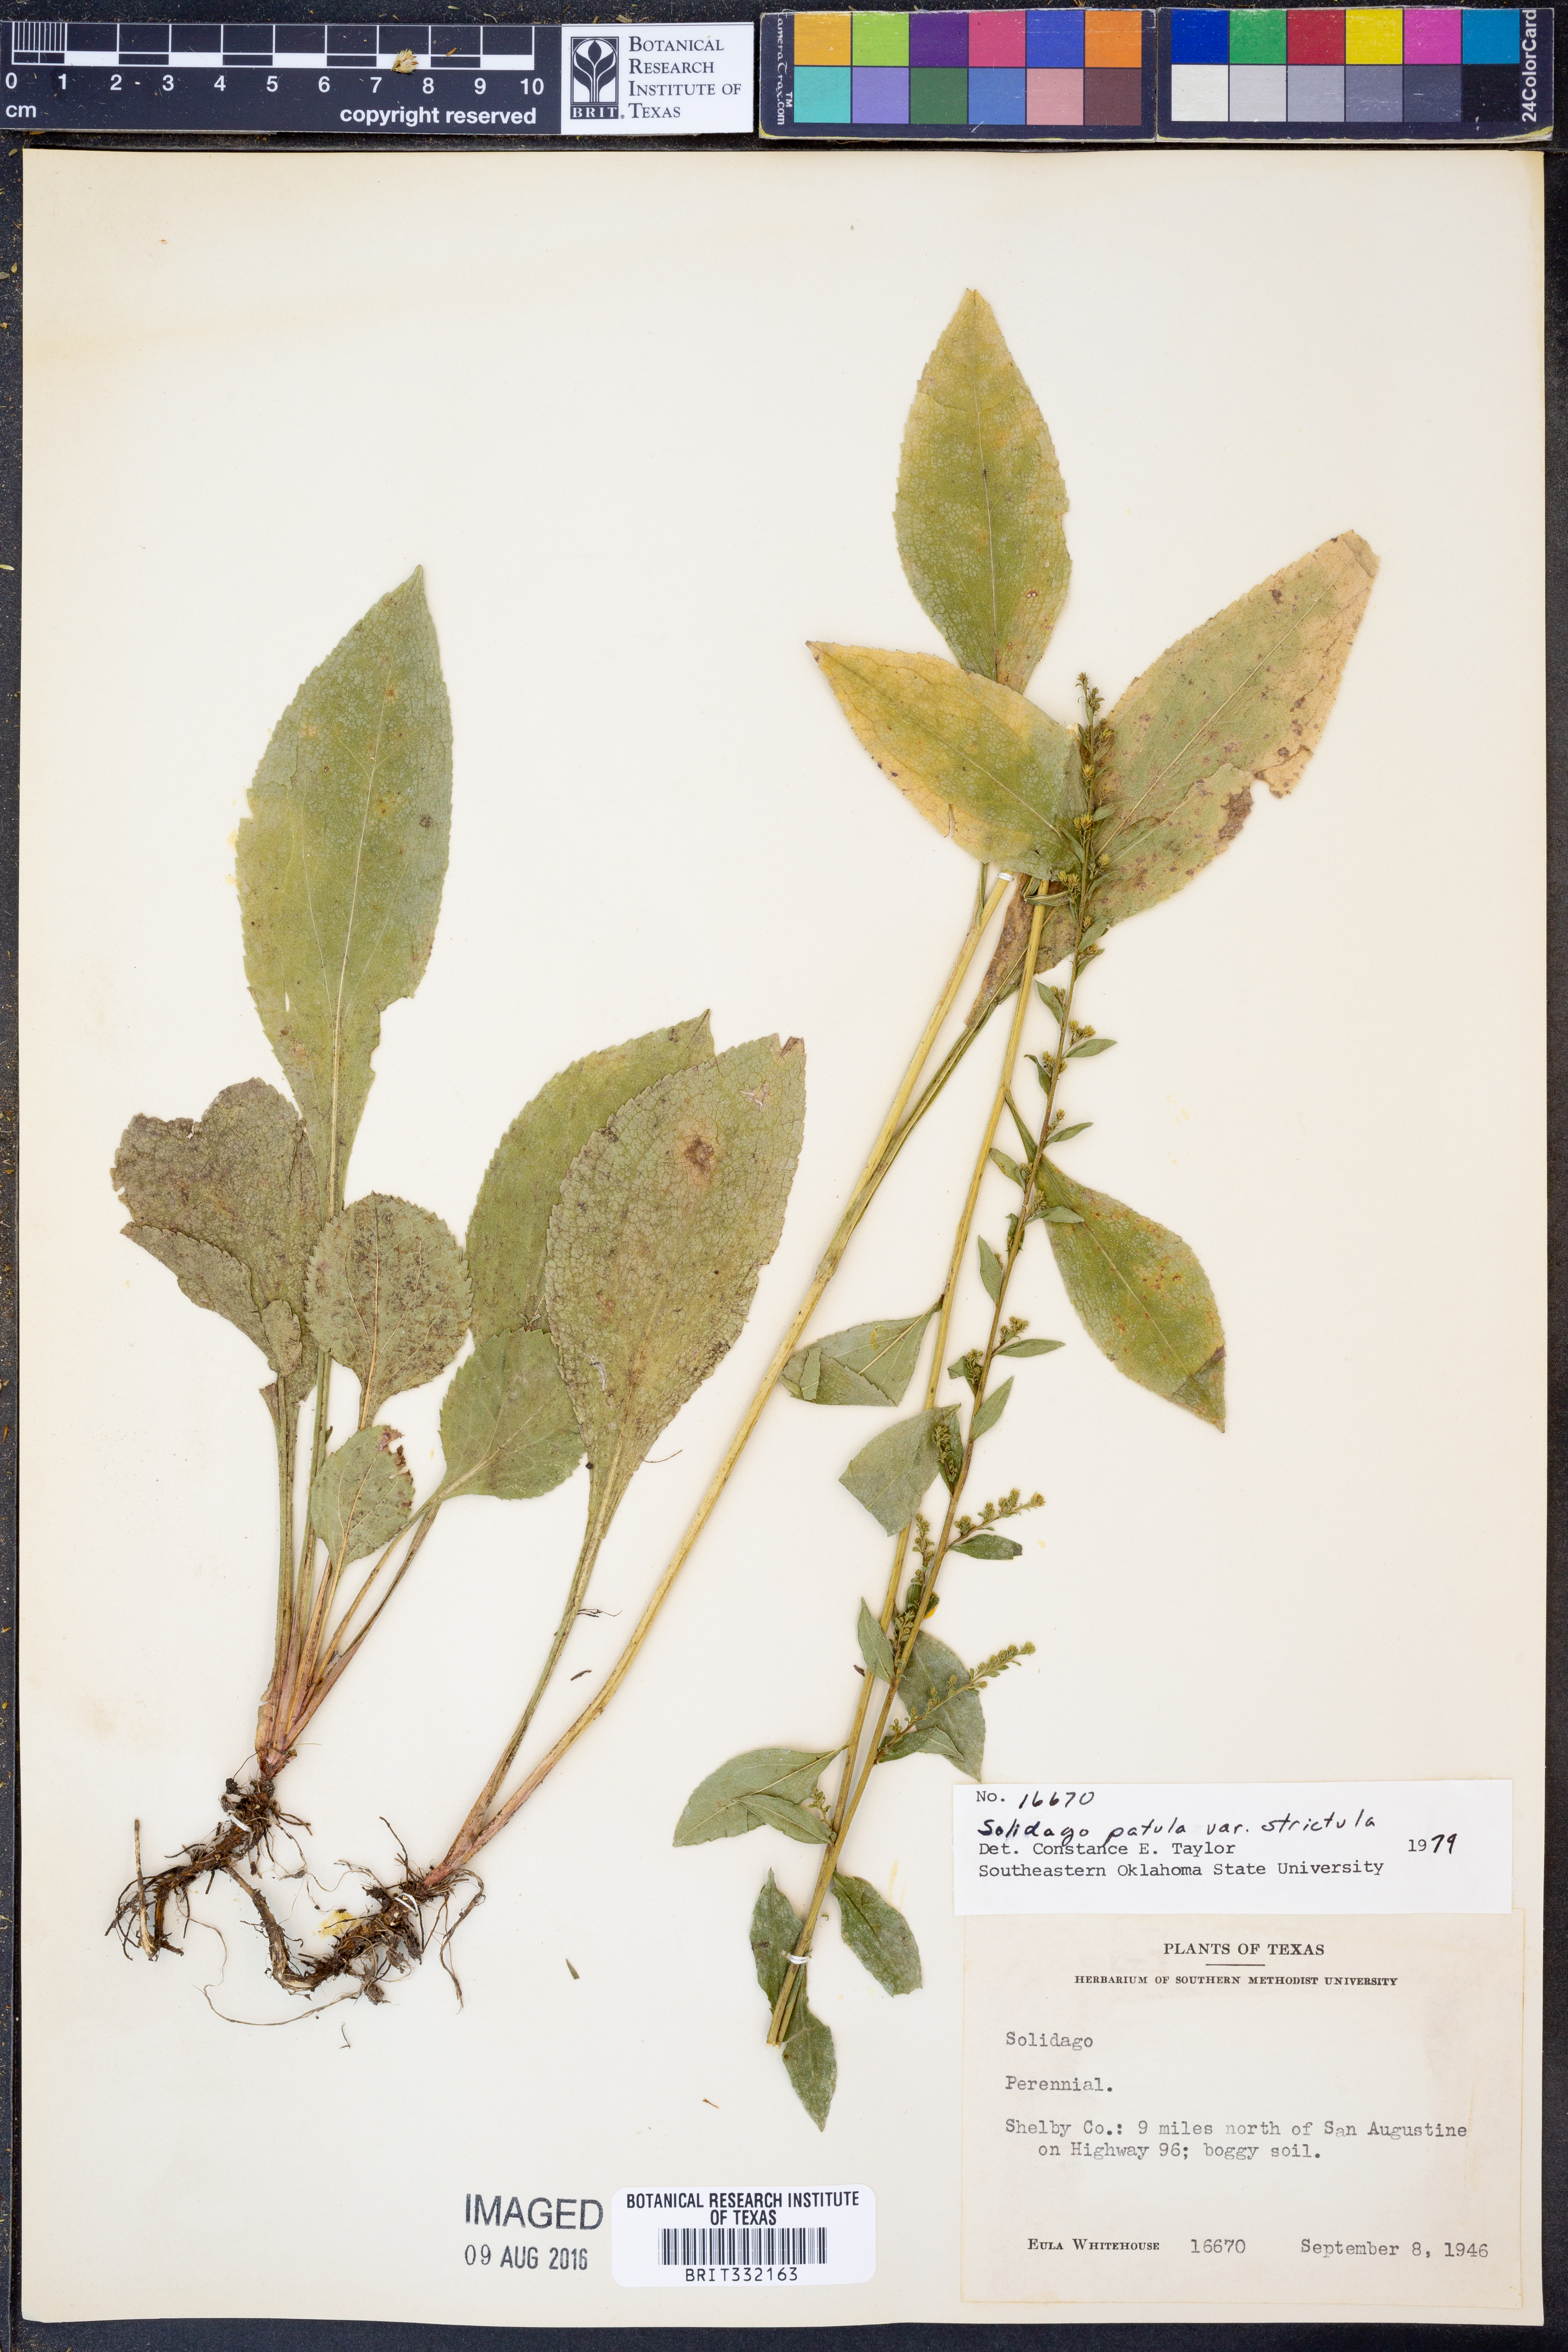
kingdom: Plantae
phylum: Tracheophyta
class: Magnoliopsida
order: Asterales
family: Asteraceae
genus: Solidago
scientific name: Solidago salicina
